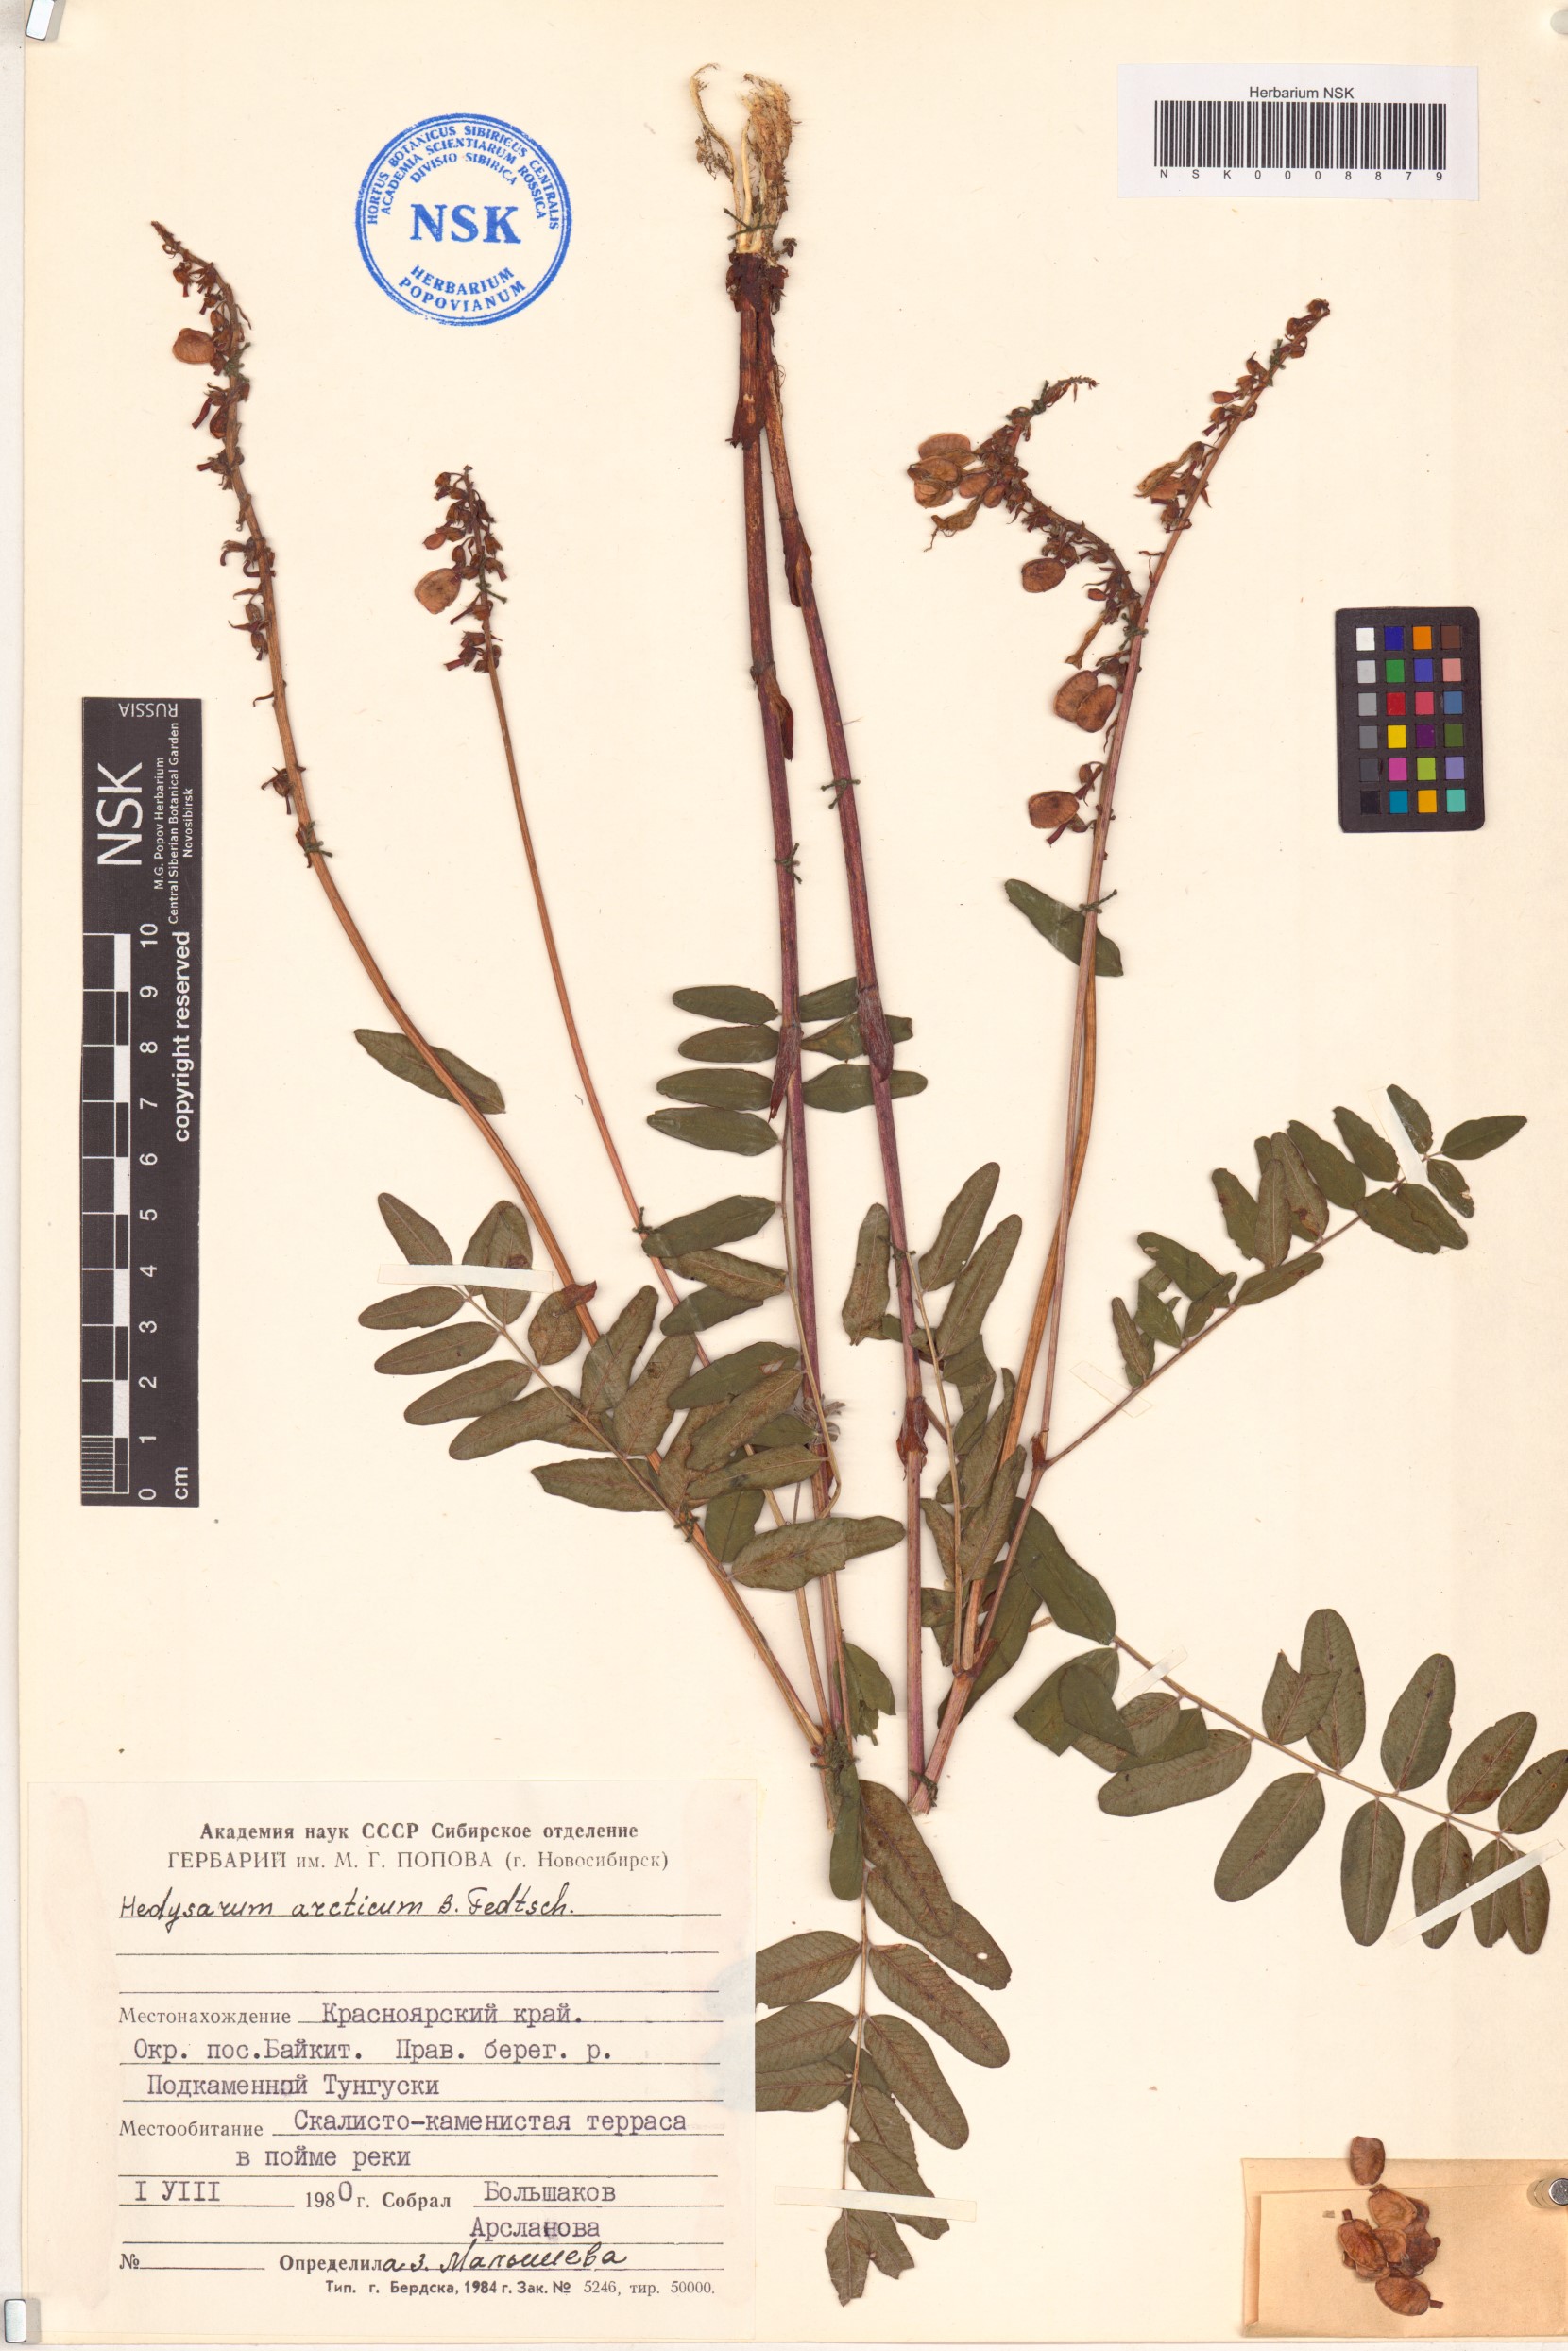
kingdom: Plantae
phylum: Tracheophyta
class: Magnoliopsida
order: Fabales
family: Fabaceae
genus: Hedysarum
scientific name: Hedysarum hedysaroides
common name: Alpine french-honeysuckle
